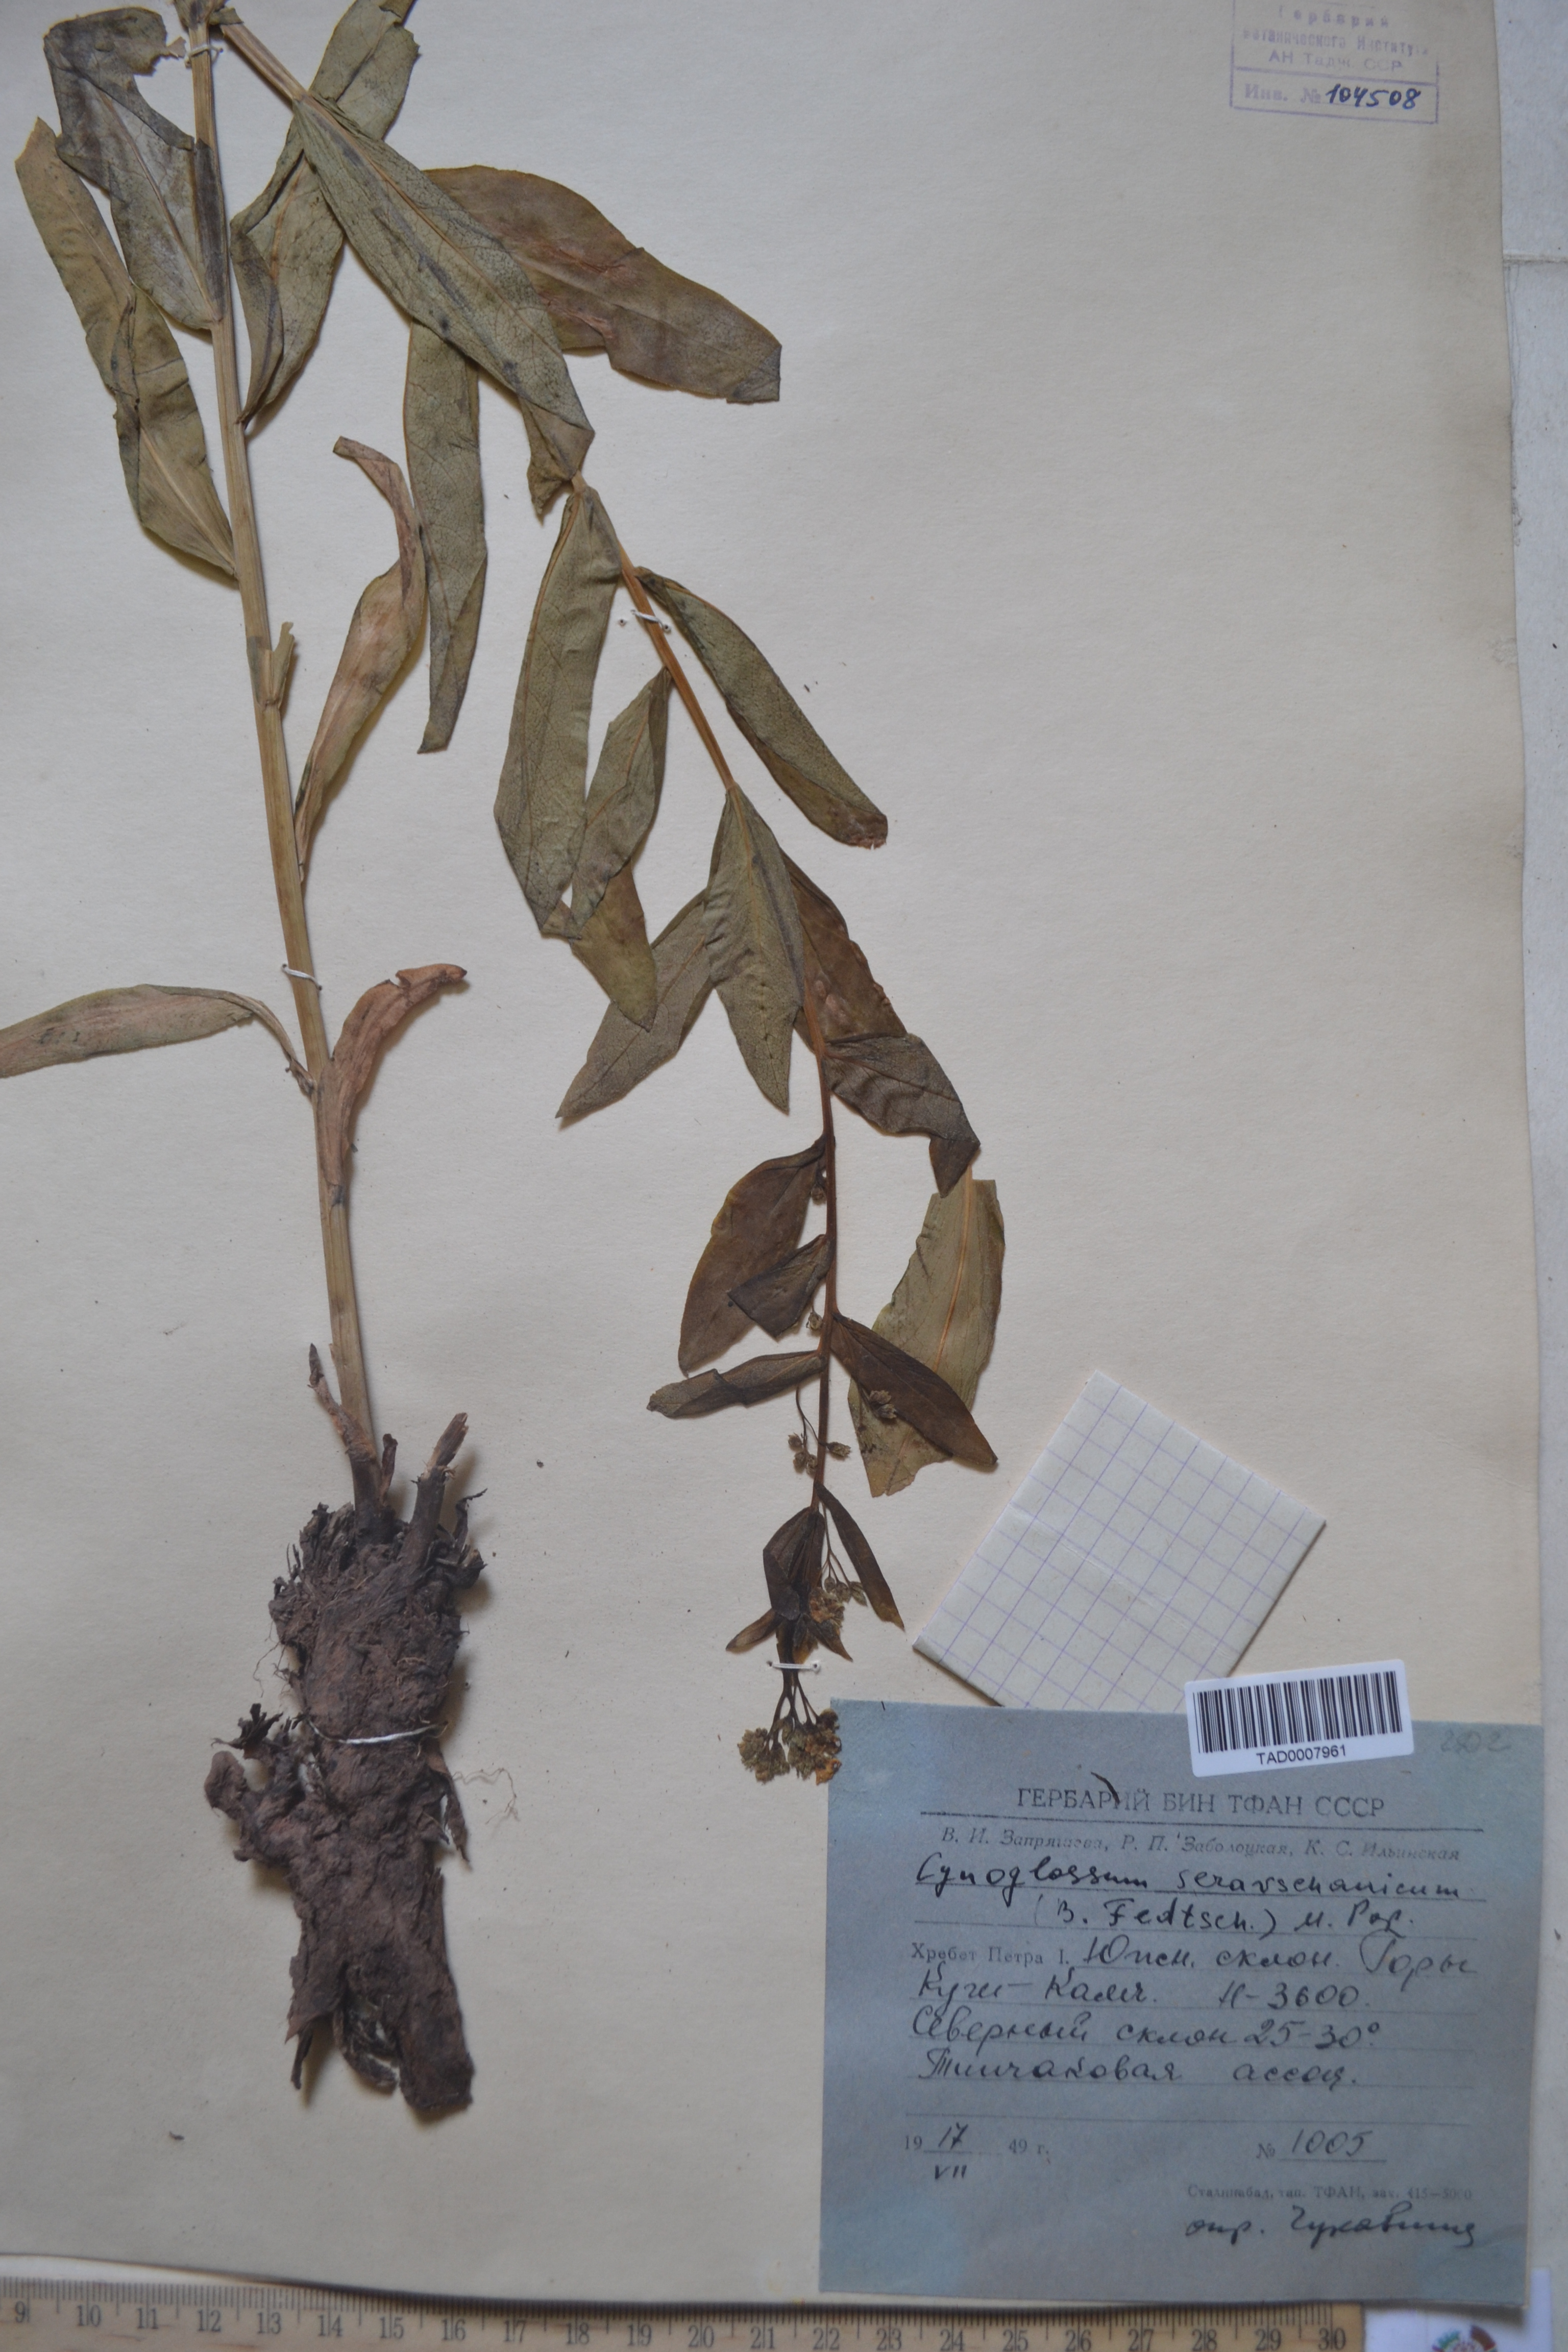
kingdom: Plantae
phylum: Tracheophyta
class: Magnoliopsida
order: Boraginales
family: Boraginaceae
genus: Cynoglossum
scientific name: Cynoglossum
